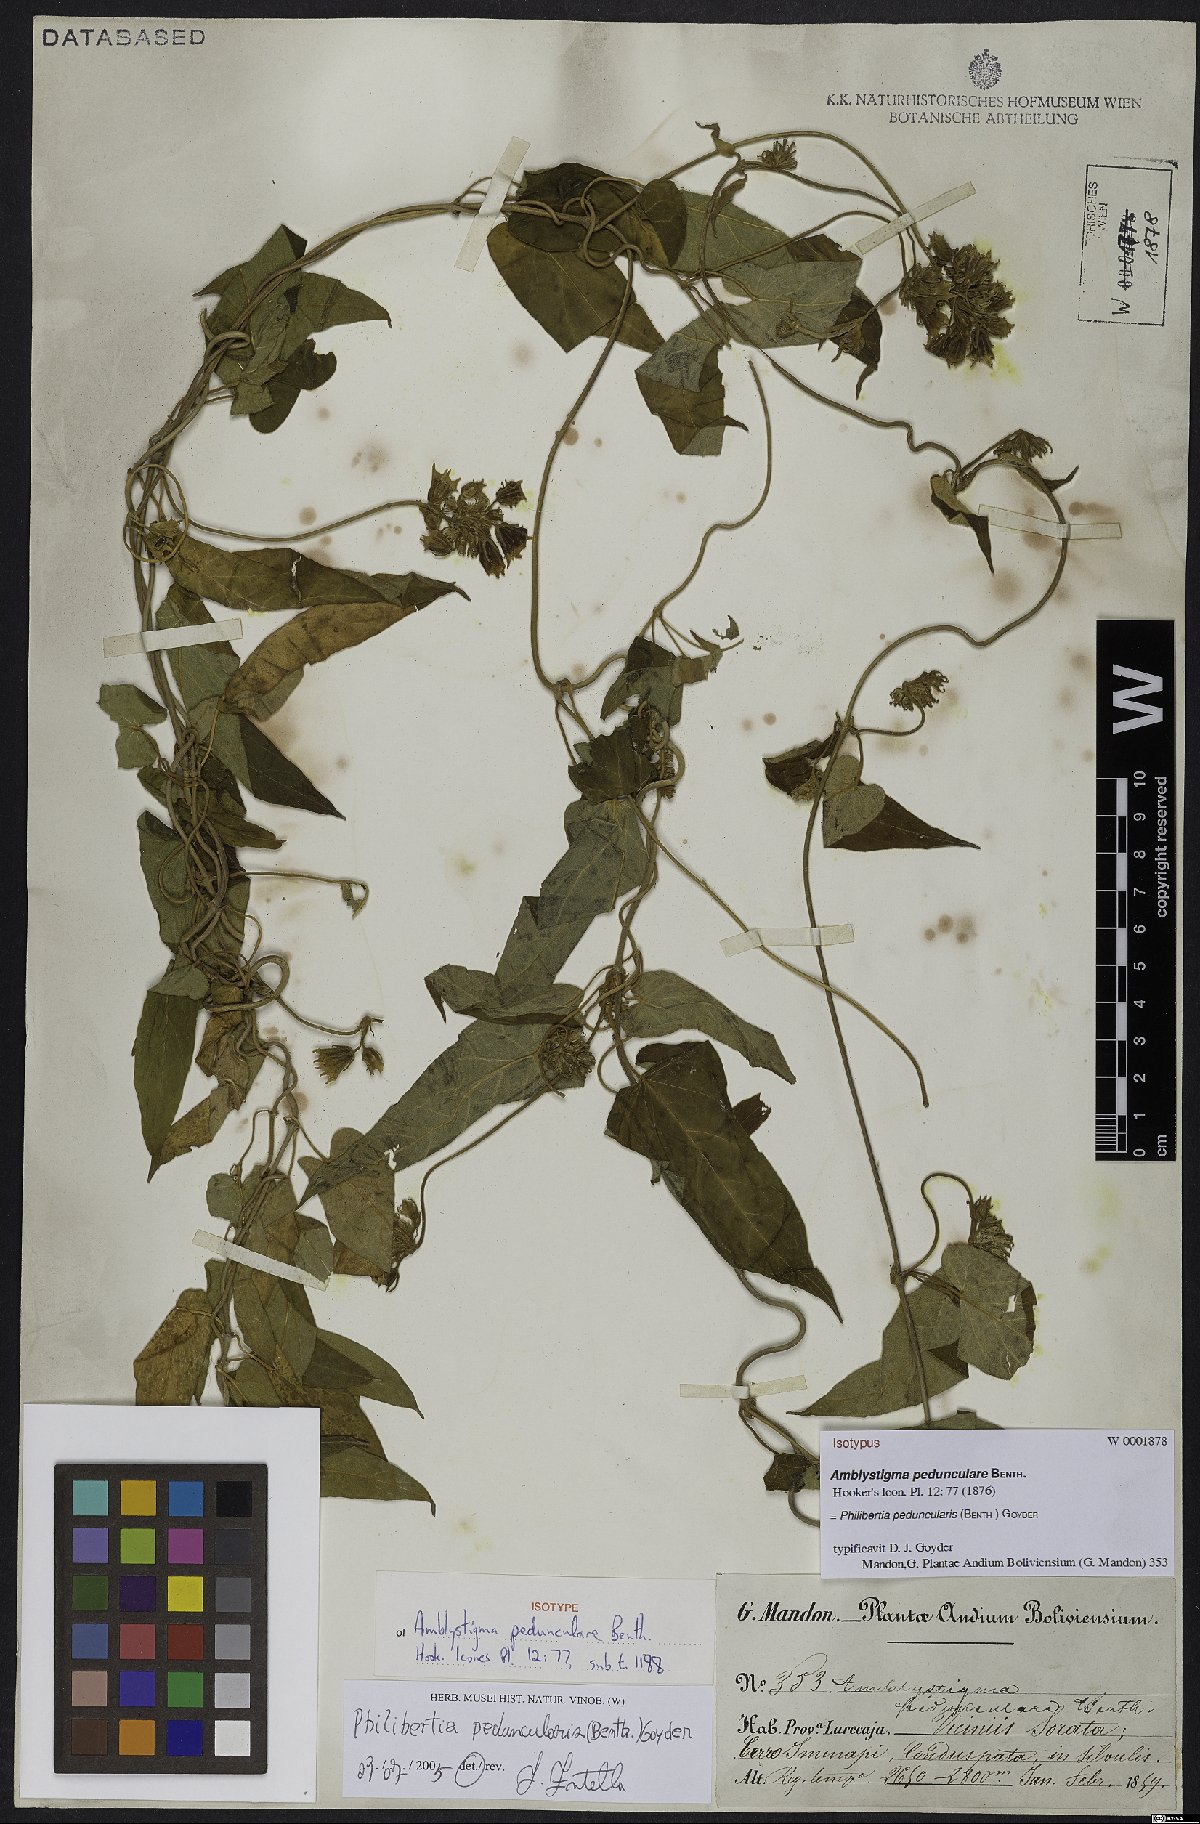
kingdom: Plantae
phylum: Tracheophyta
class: Magnoliopsida
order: Gentianales
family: Apocynaceae
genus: Philibertia
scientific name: Philibertia peduncularis
